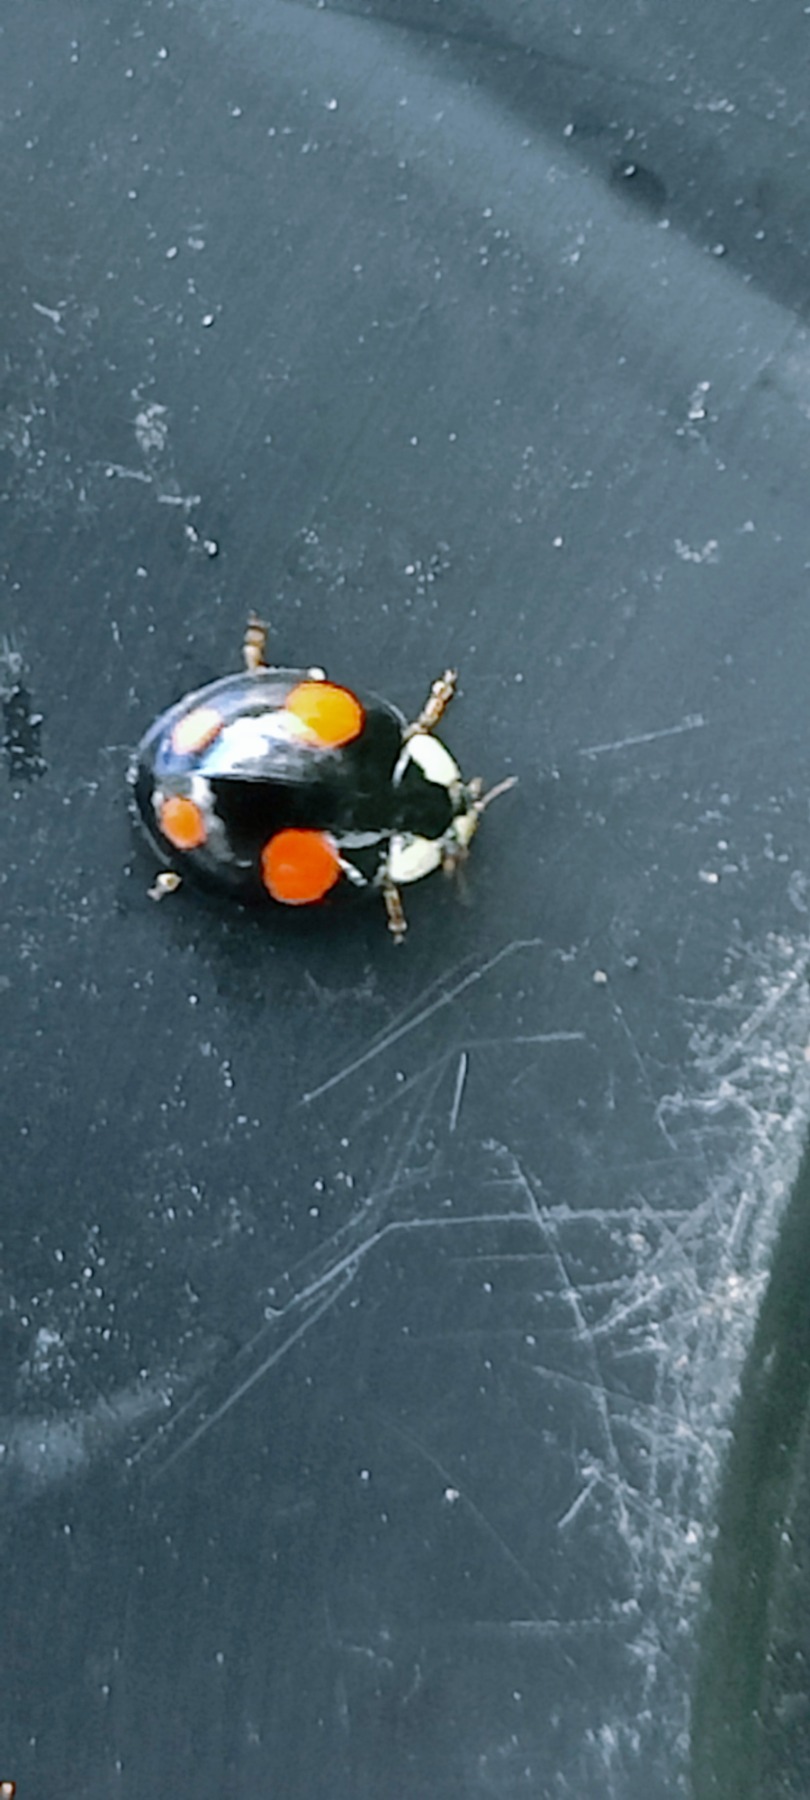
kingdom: Animalia
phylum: Arthropoda
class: Insecta
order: Coleoptera
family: Coccinellidae
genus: Harmonia
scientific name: Harmonia axyridis
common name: Harlekinmariehøne
